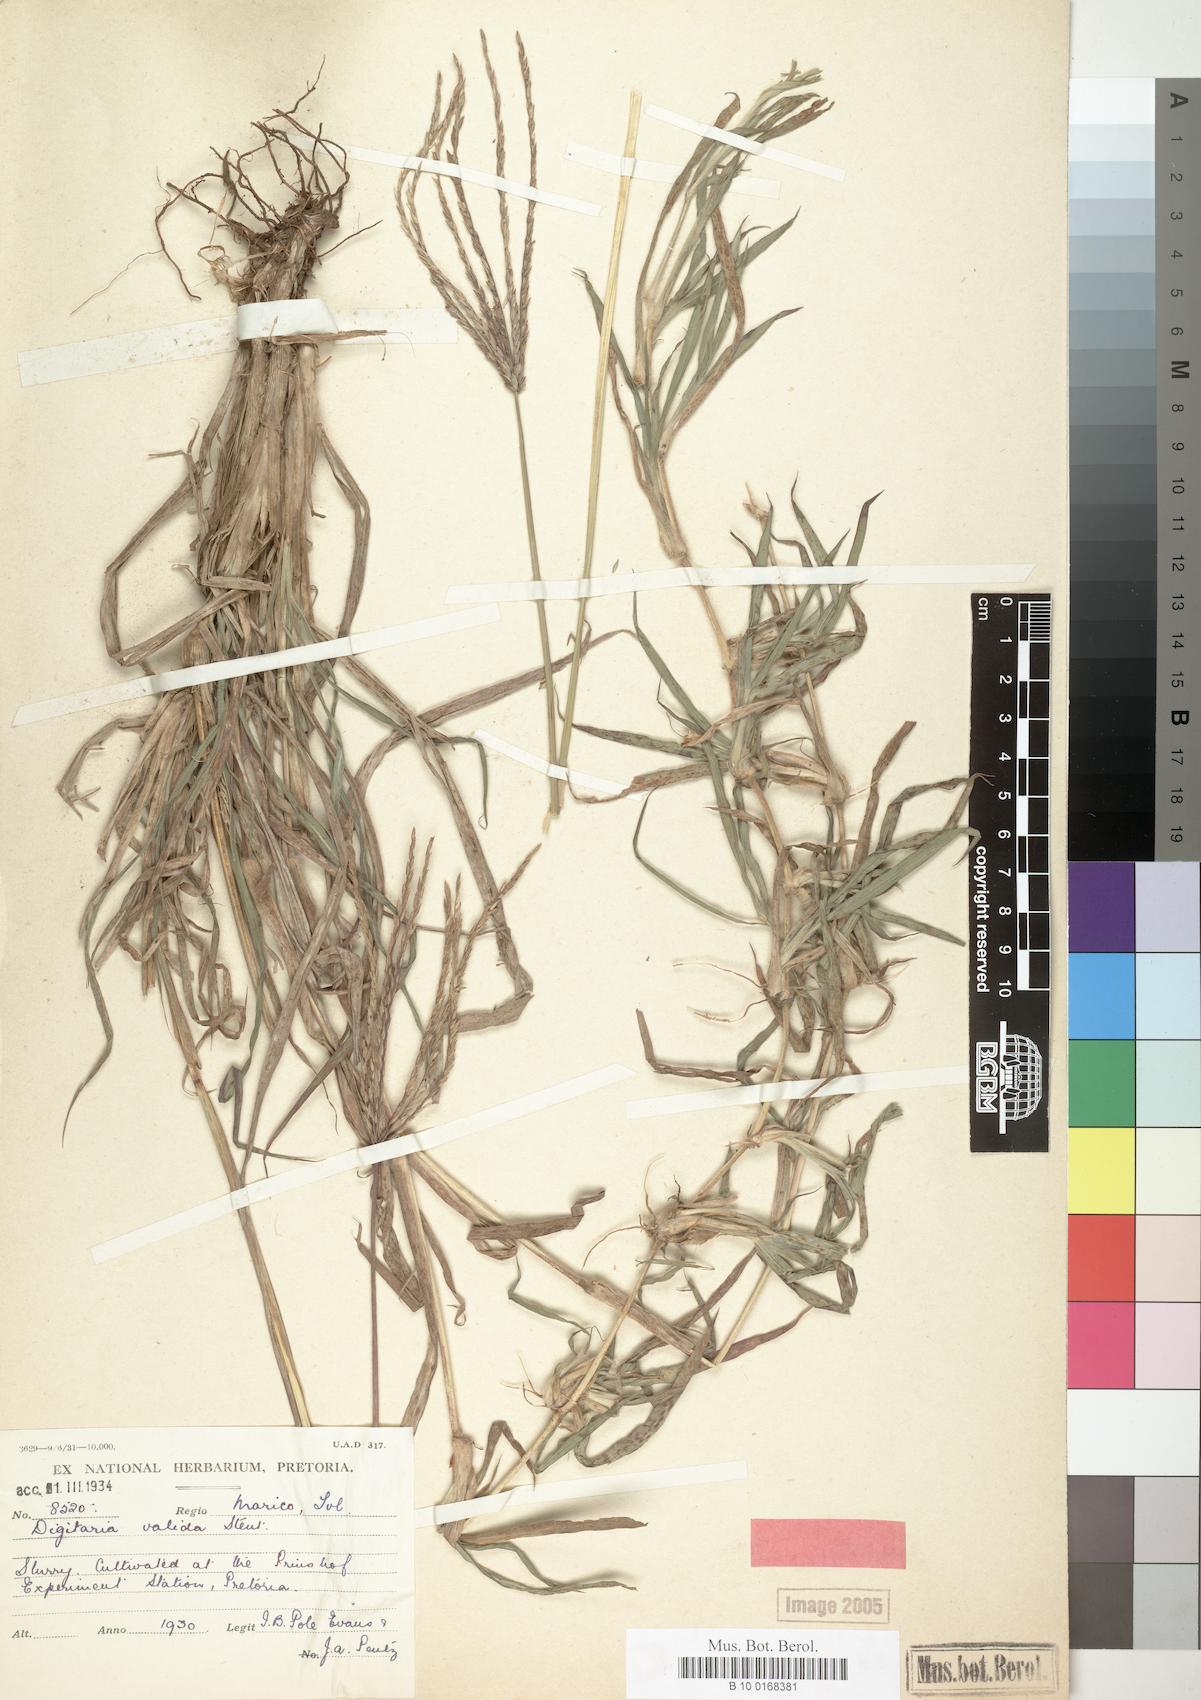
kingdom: Plantae
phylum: Tracheophyta
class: Liliopsida
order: Poales
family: Poaceae
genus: Digitaria
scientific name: Digitaria eriantha
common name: Digitgrass
